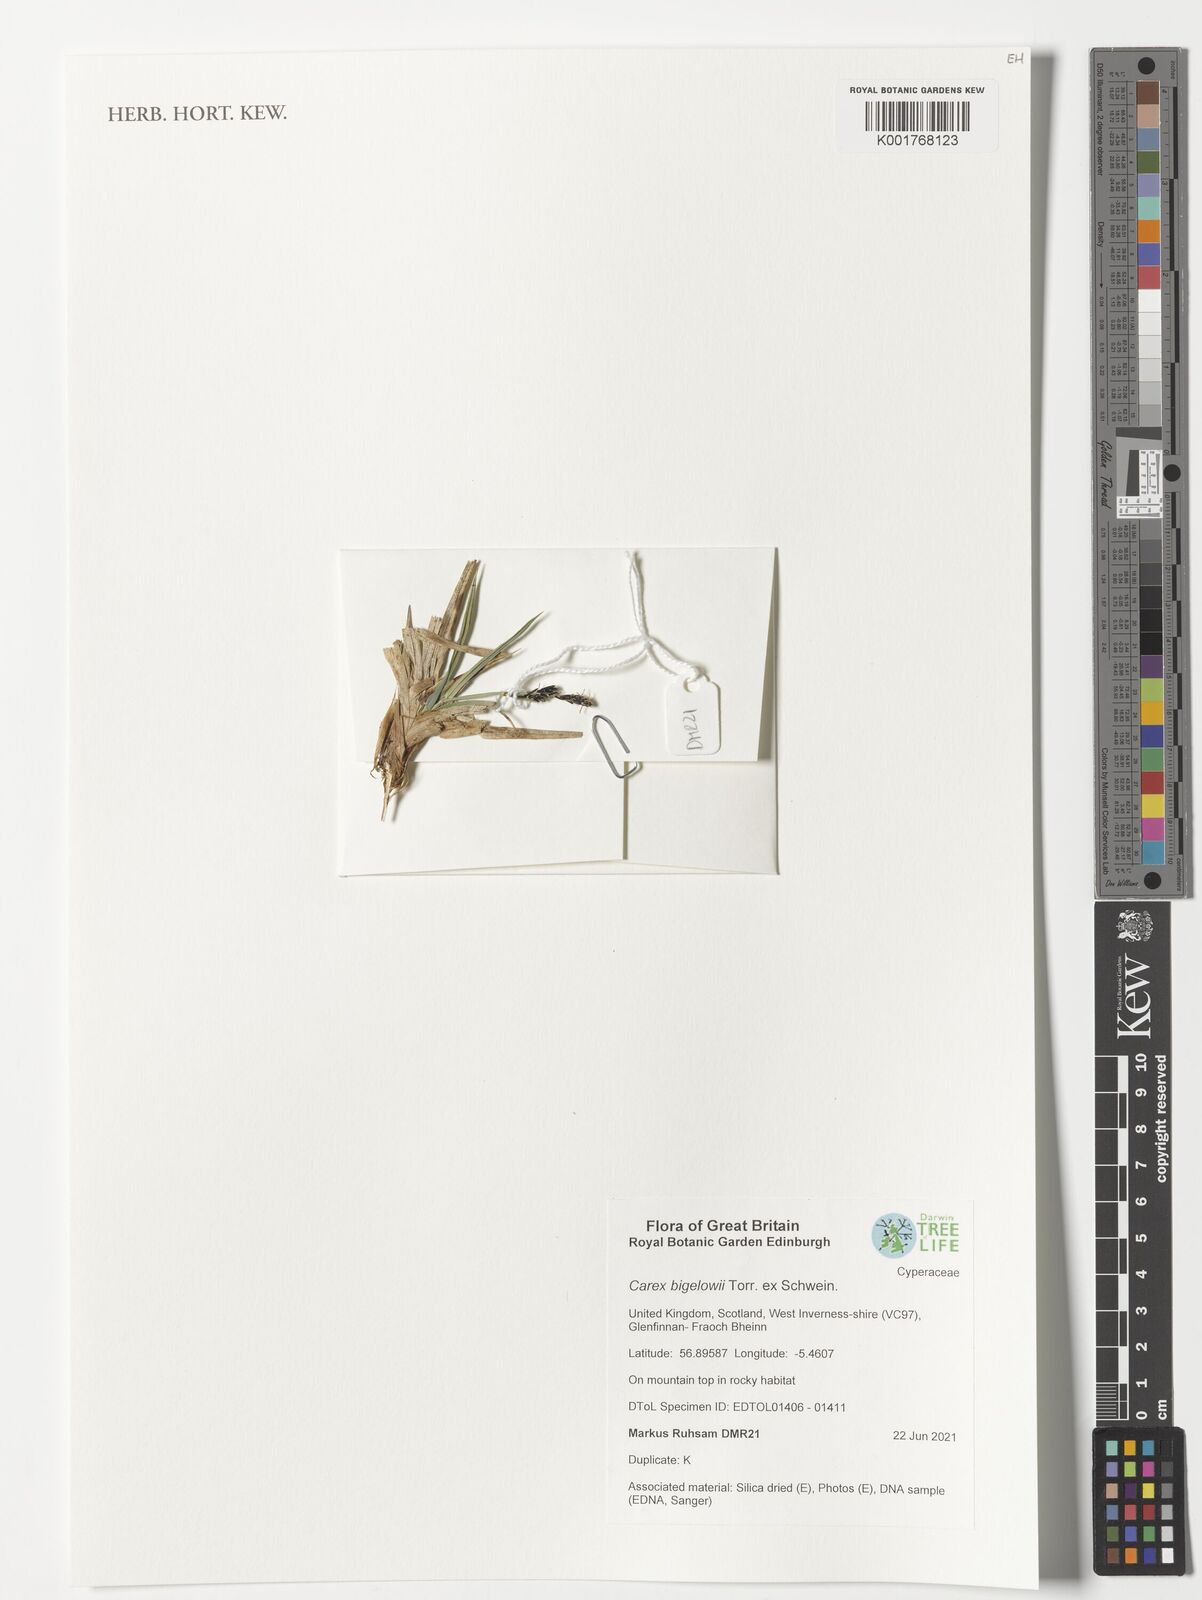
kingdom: Plantae
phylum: Tracheophyta
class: Liliopsida
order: Poales
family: Cyperaceae
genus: Carex
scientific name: Carex bigelowii
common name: Stiff sedge
